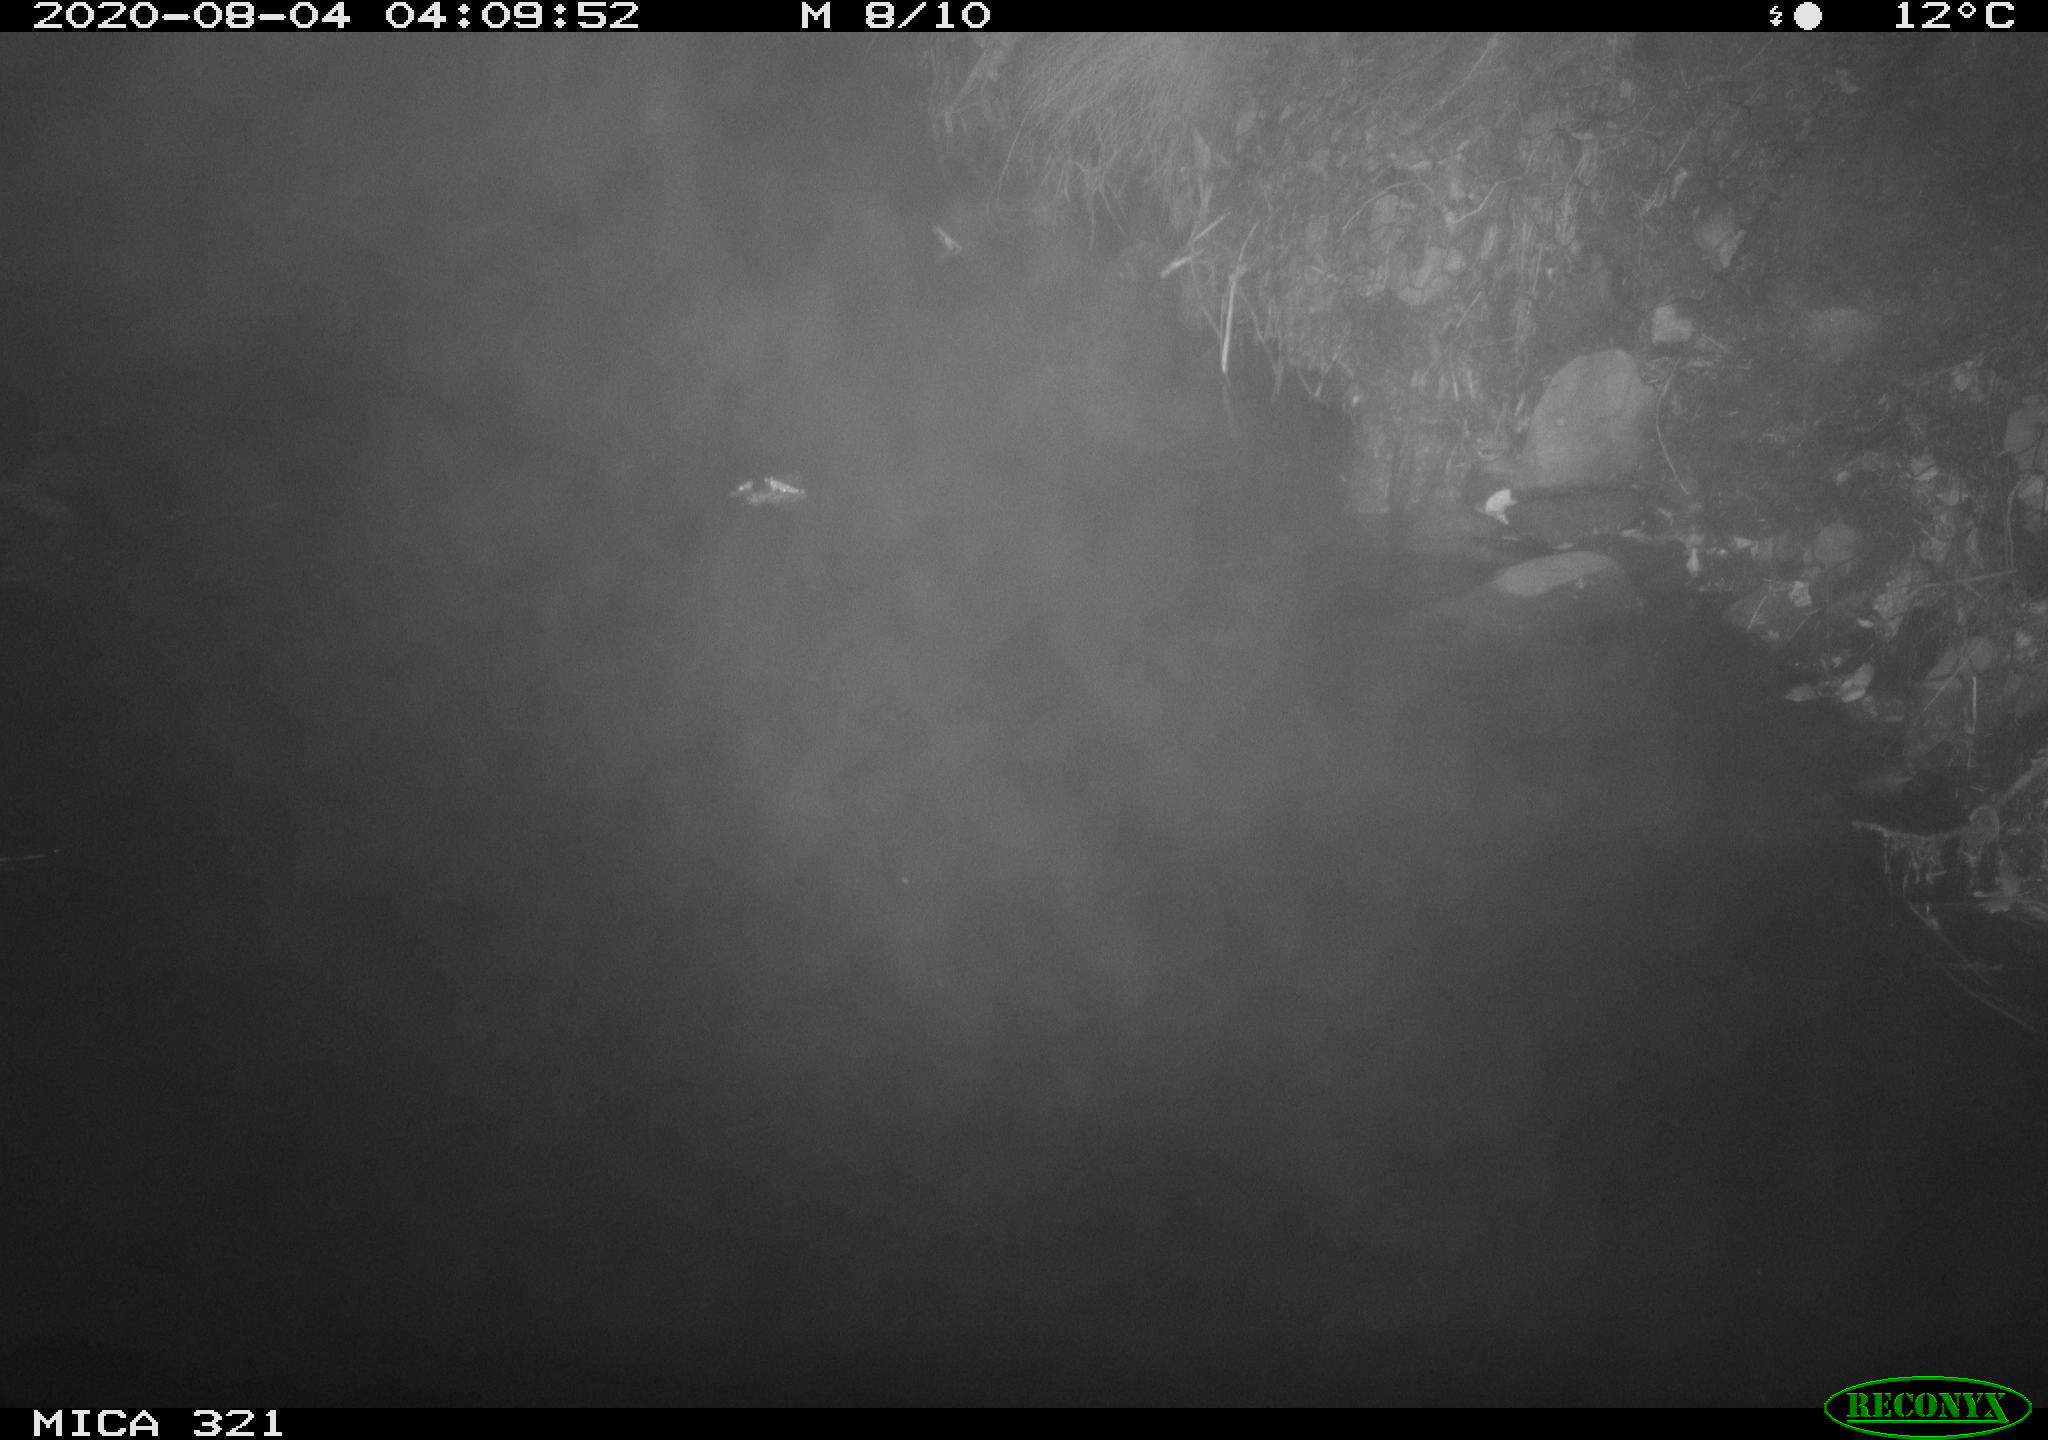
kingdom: Animalia
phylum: Chordata
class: Aves
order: Anseriformes
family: Anatidae
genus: Anas
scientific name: Anas platyrhynchos
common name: Mallard
